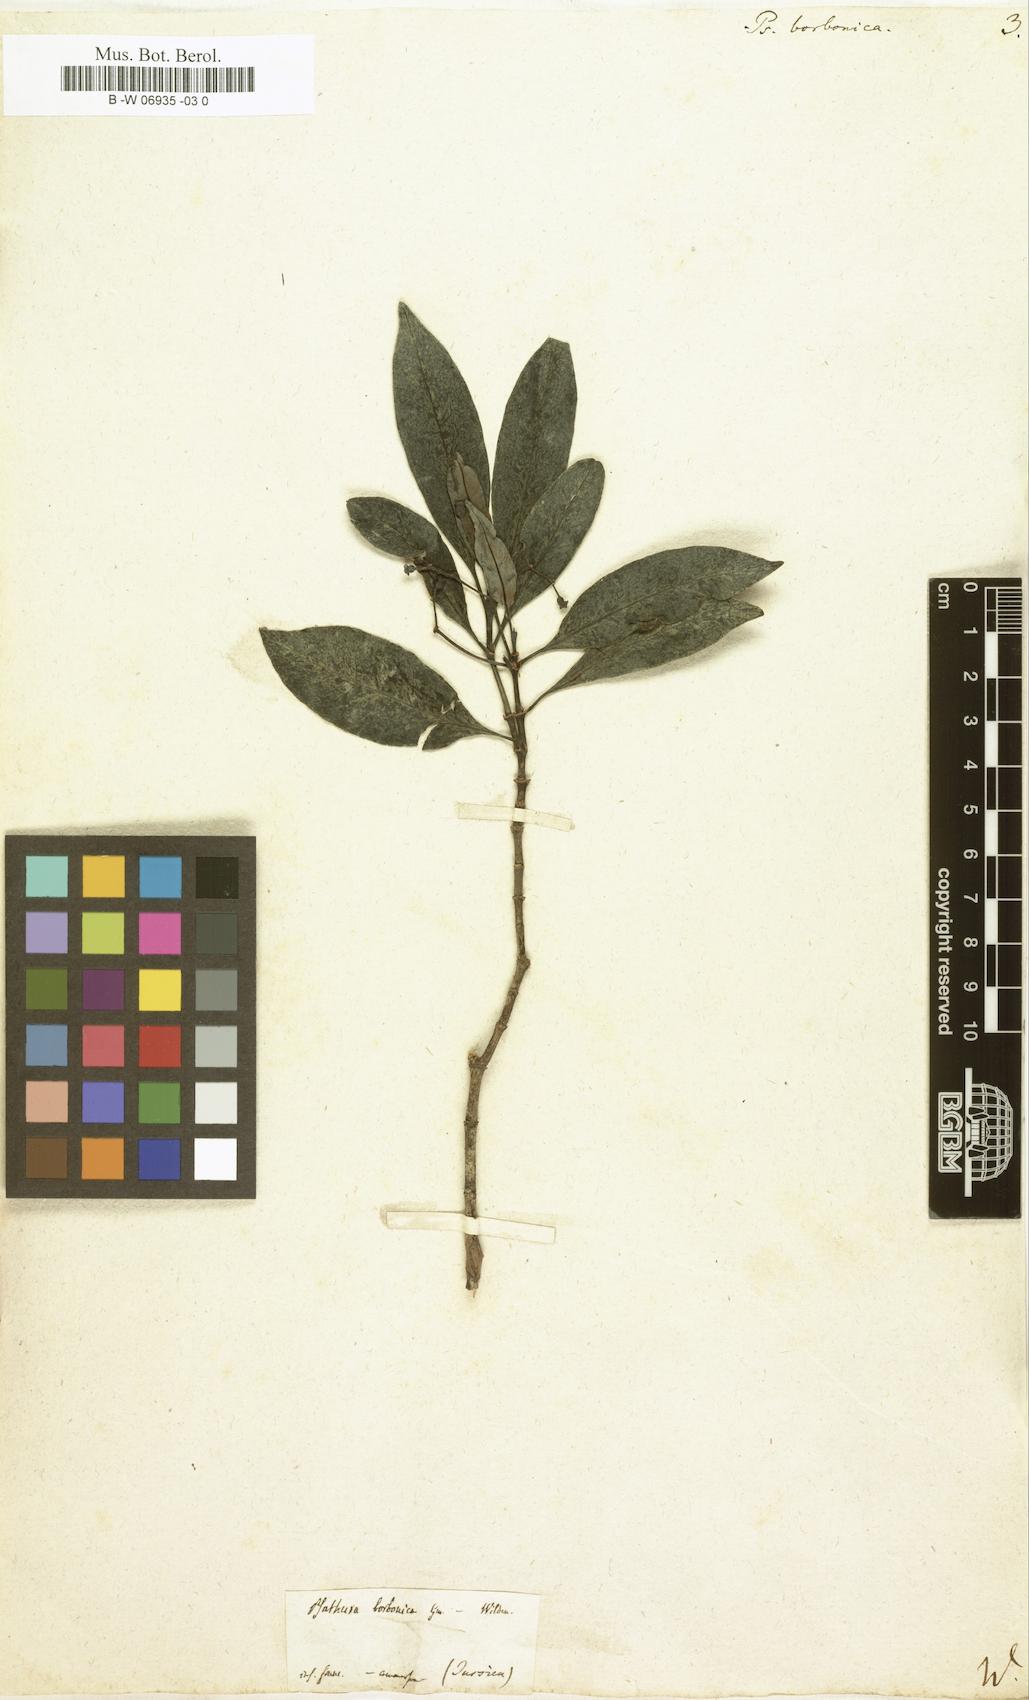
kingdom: Plantae
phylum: Tracheophyta
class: Magnoliopsida
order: Gentianales
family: Rubiaceae
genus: Psychotria
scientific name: Psychotria borbonica
